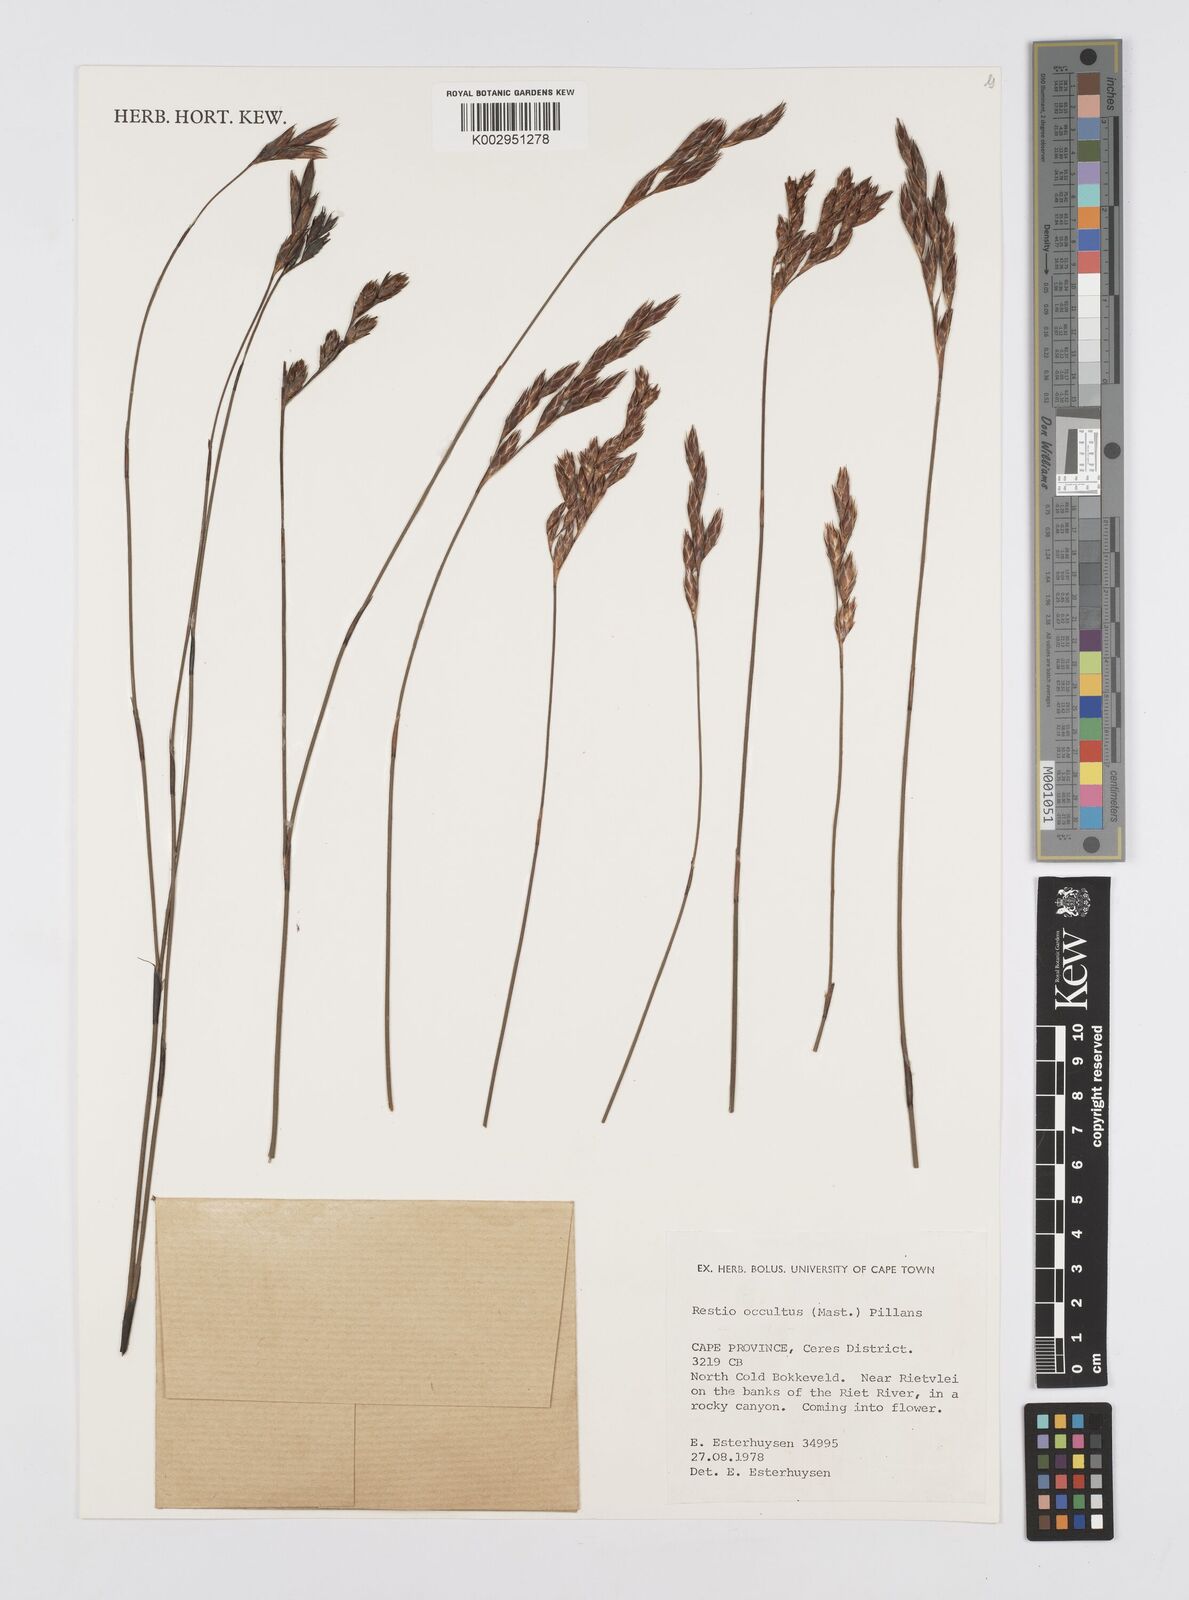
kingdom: Plantae
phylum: Tracheophyta
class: Liliopsida
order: Poales
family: Restionaceae
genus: Restio
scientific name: Restio occultus
